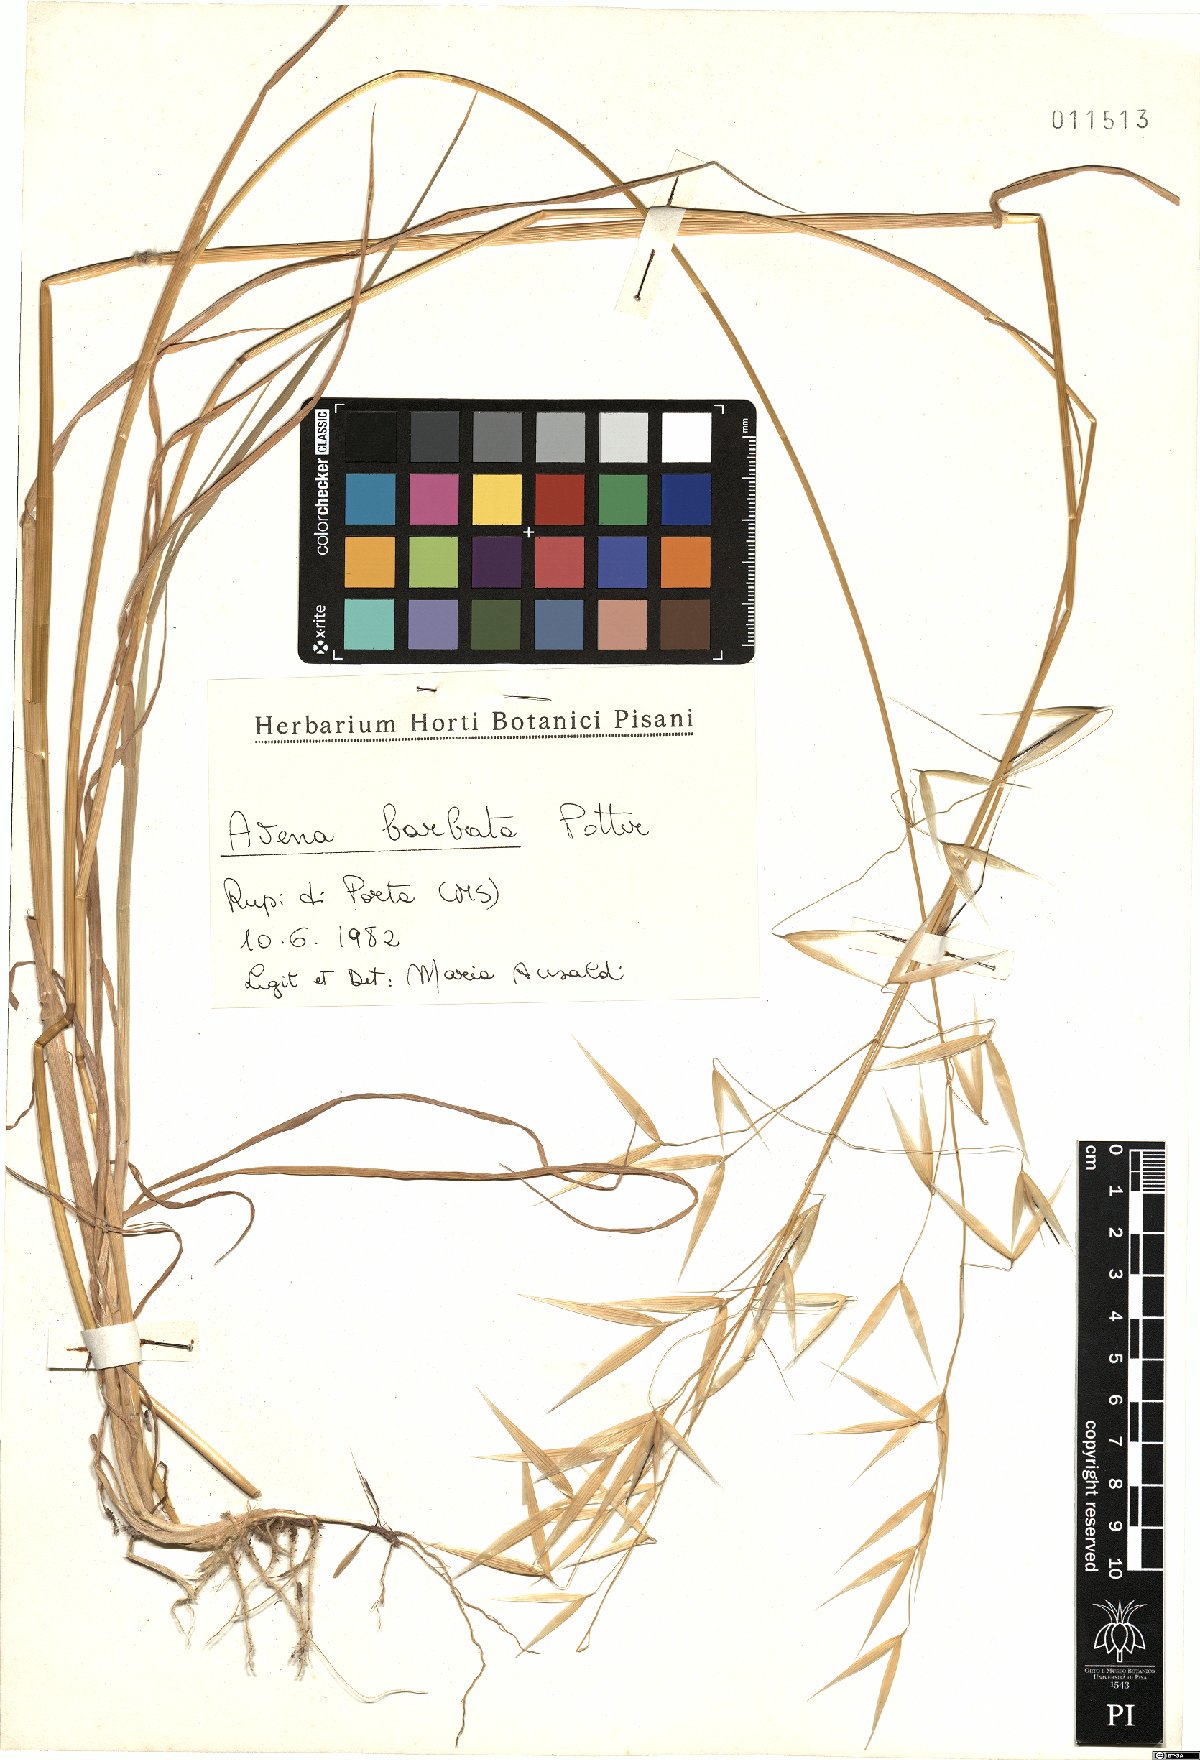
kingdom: Plantae
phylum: Tracheophyta
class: Liliopsida
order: Poales
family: Poaceae
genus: Avena
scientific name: Avena barbata
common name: Slender oat
